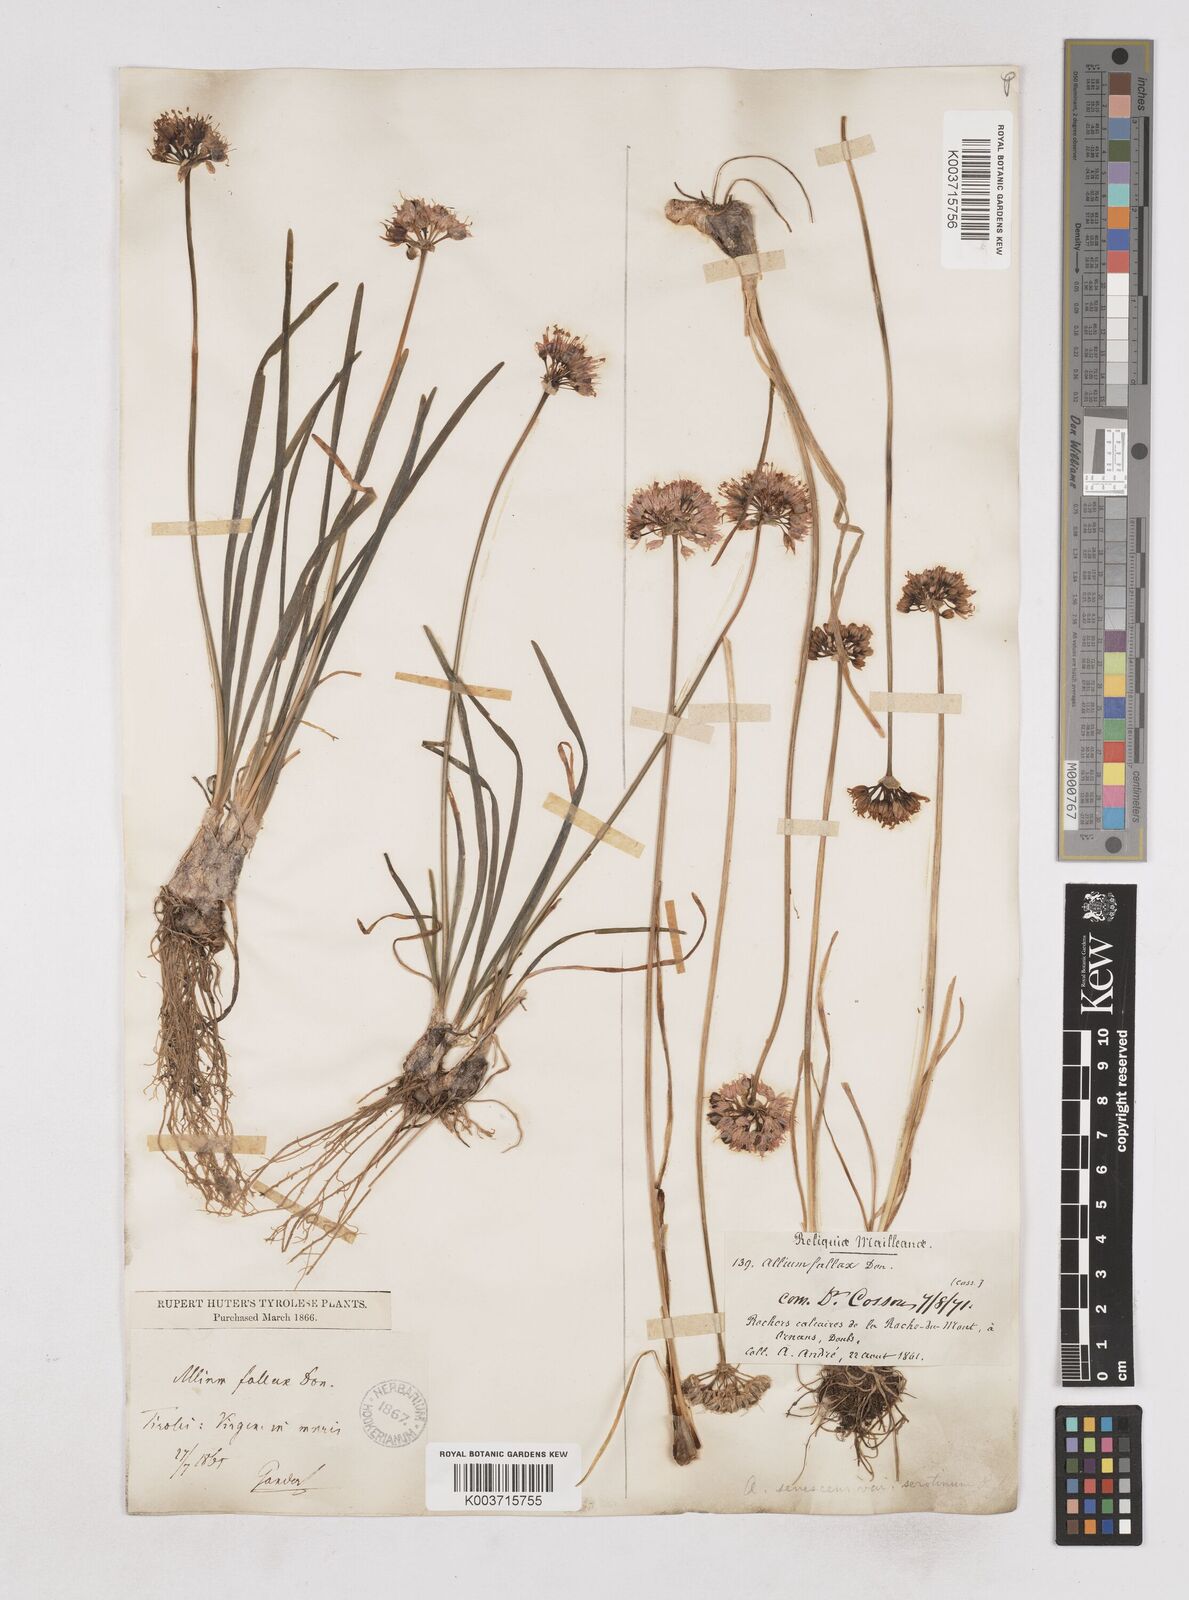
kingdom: Plantae
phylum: Tracheophyta
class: Liliopsida
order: Asparagales
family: Amaryllidaceae
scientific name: Amaryllidaceae
